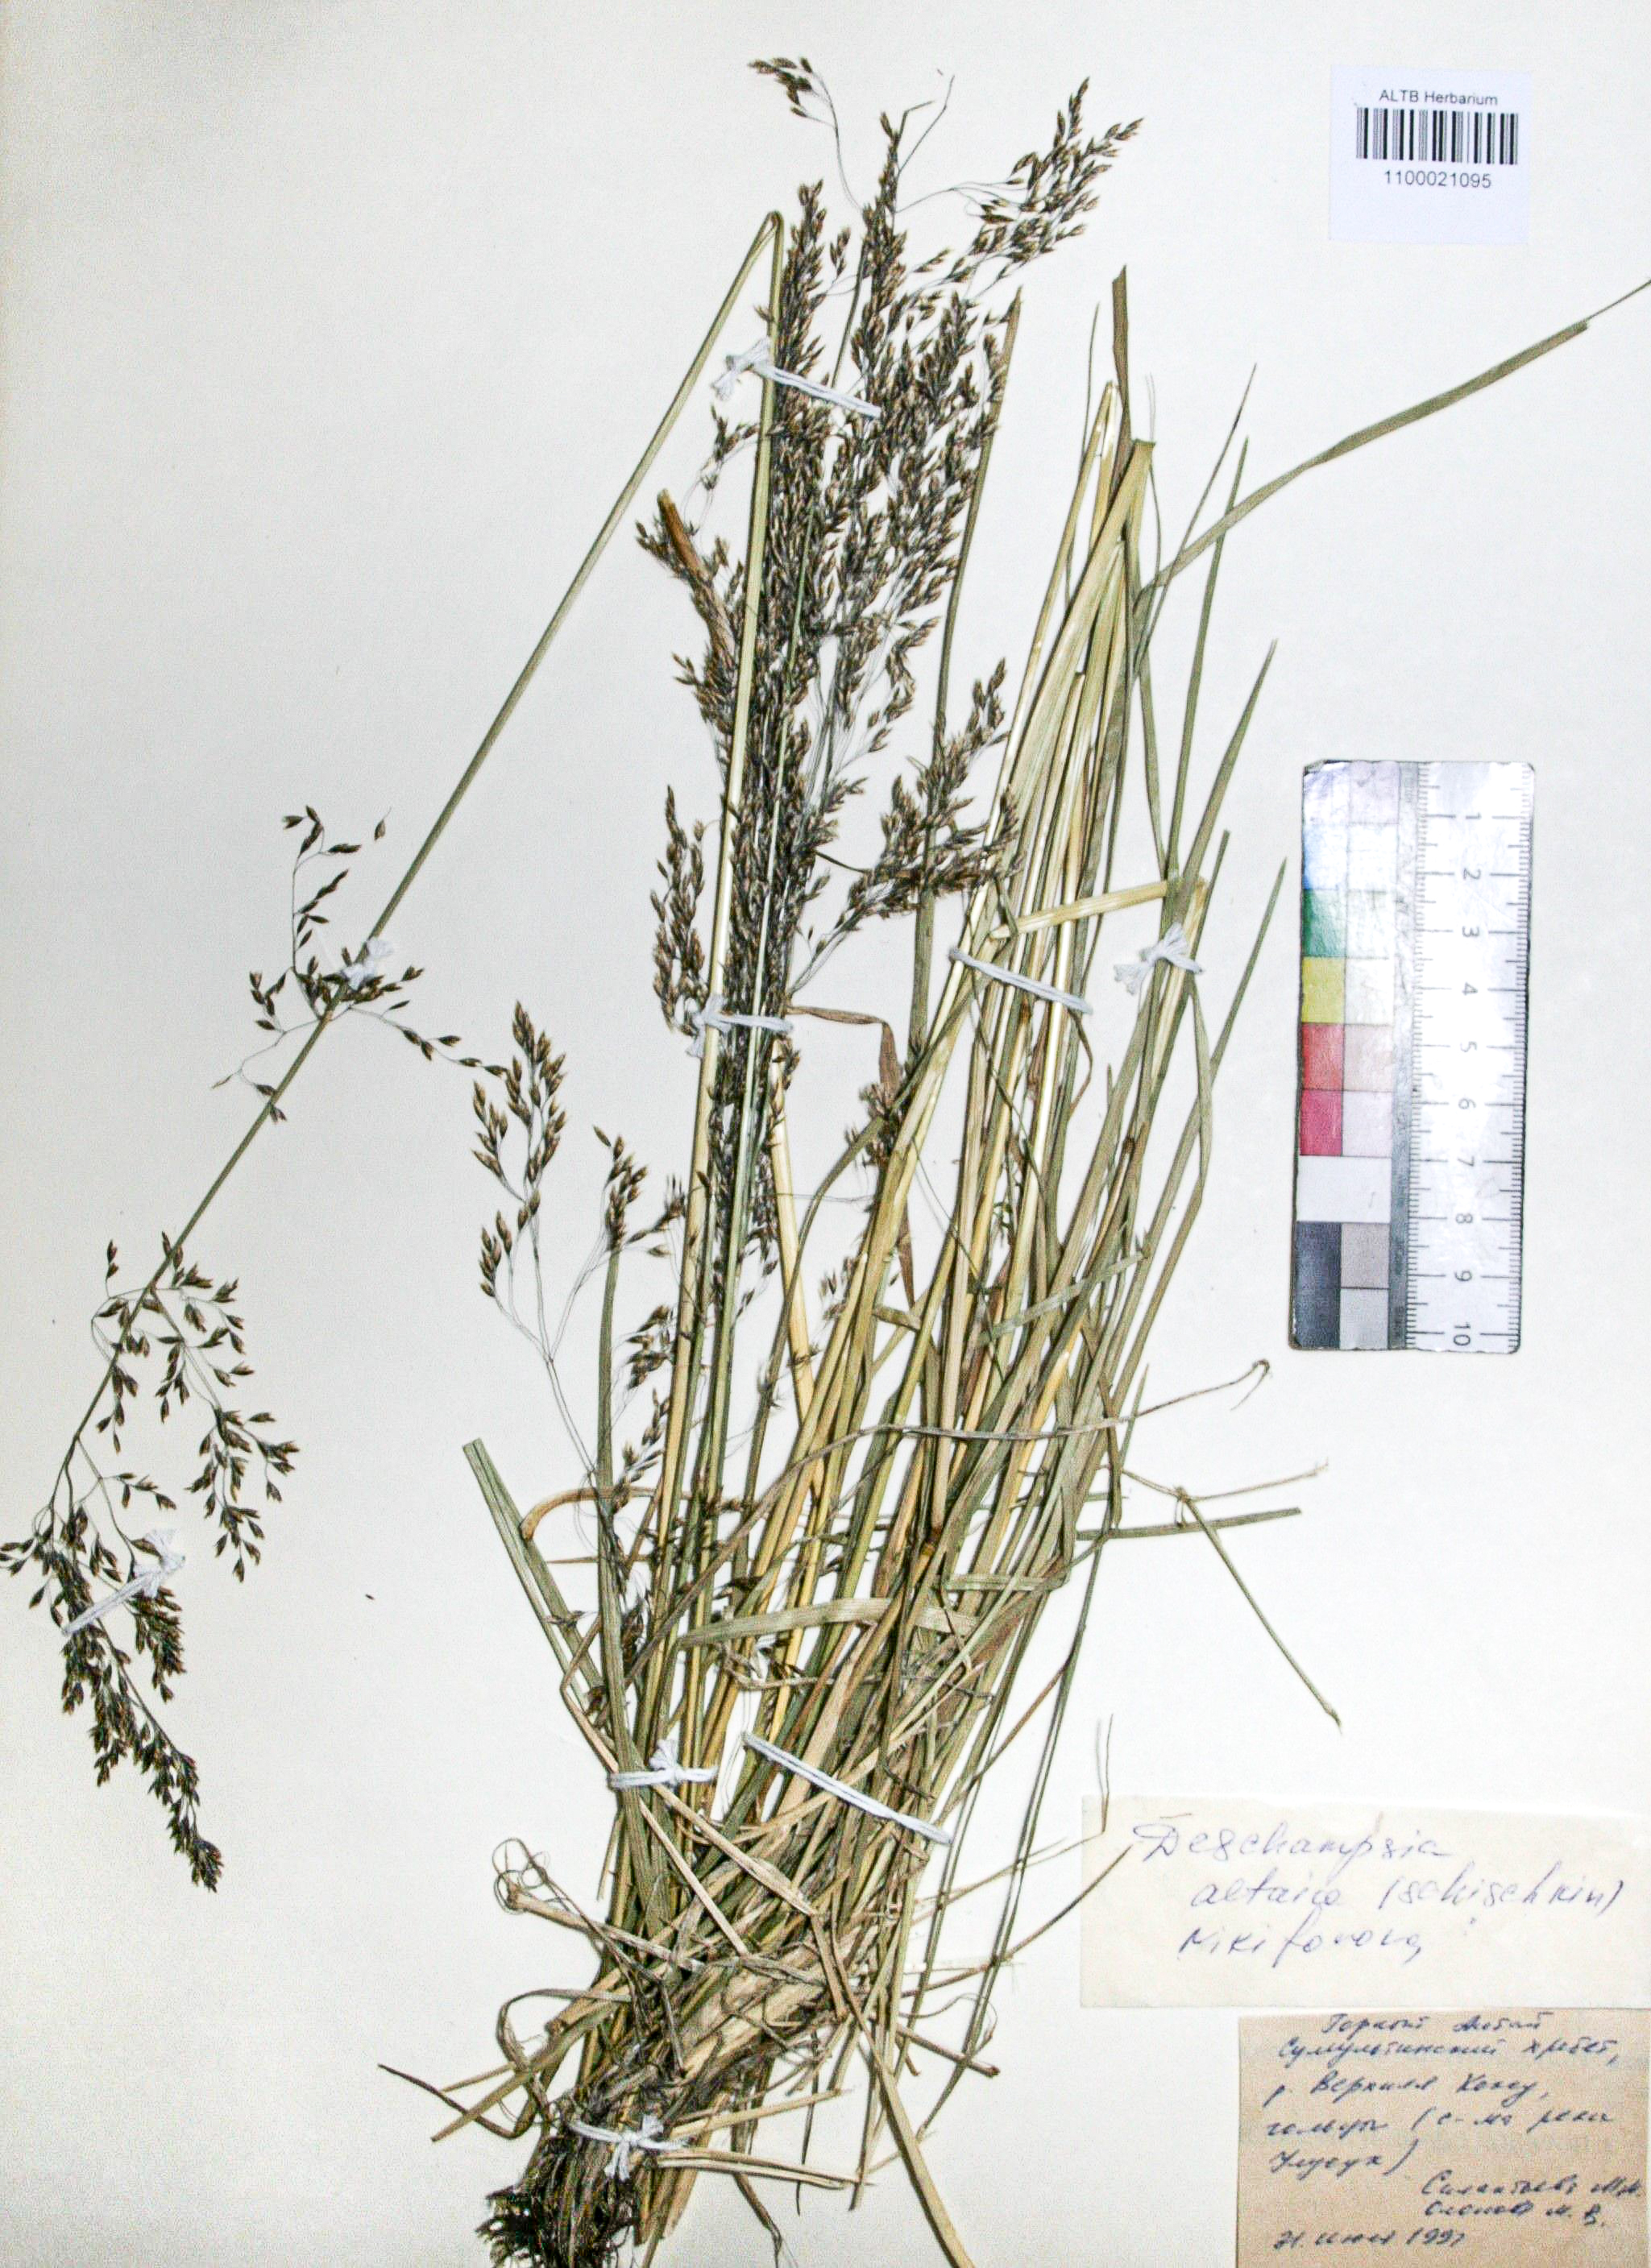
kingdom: Plantae
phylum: Tracheophyta
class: Liliopsida
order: Poales
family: Poaceae
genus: Deschampsia
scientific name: Deschampsia cespitosa
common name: Tufted hair-grass
